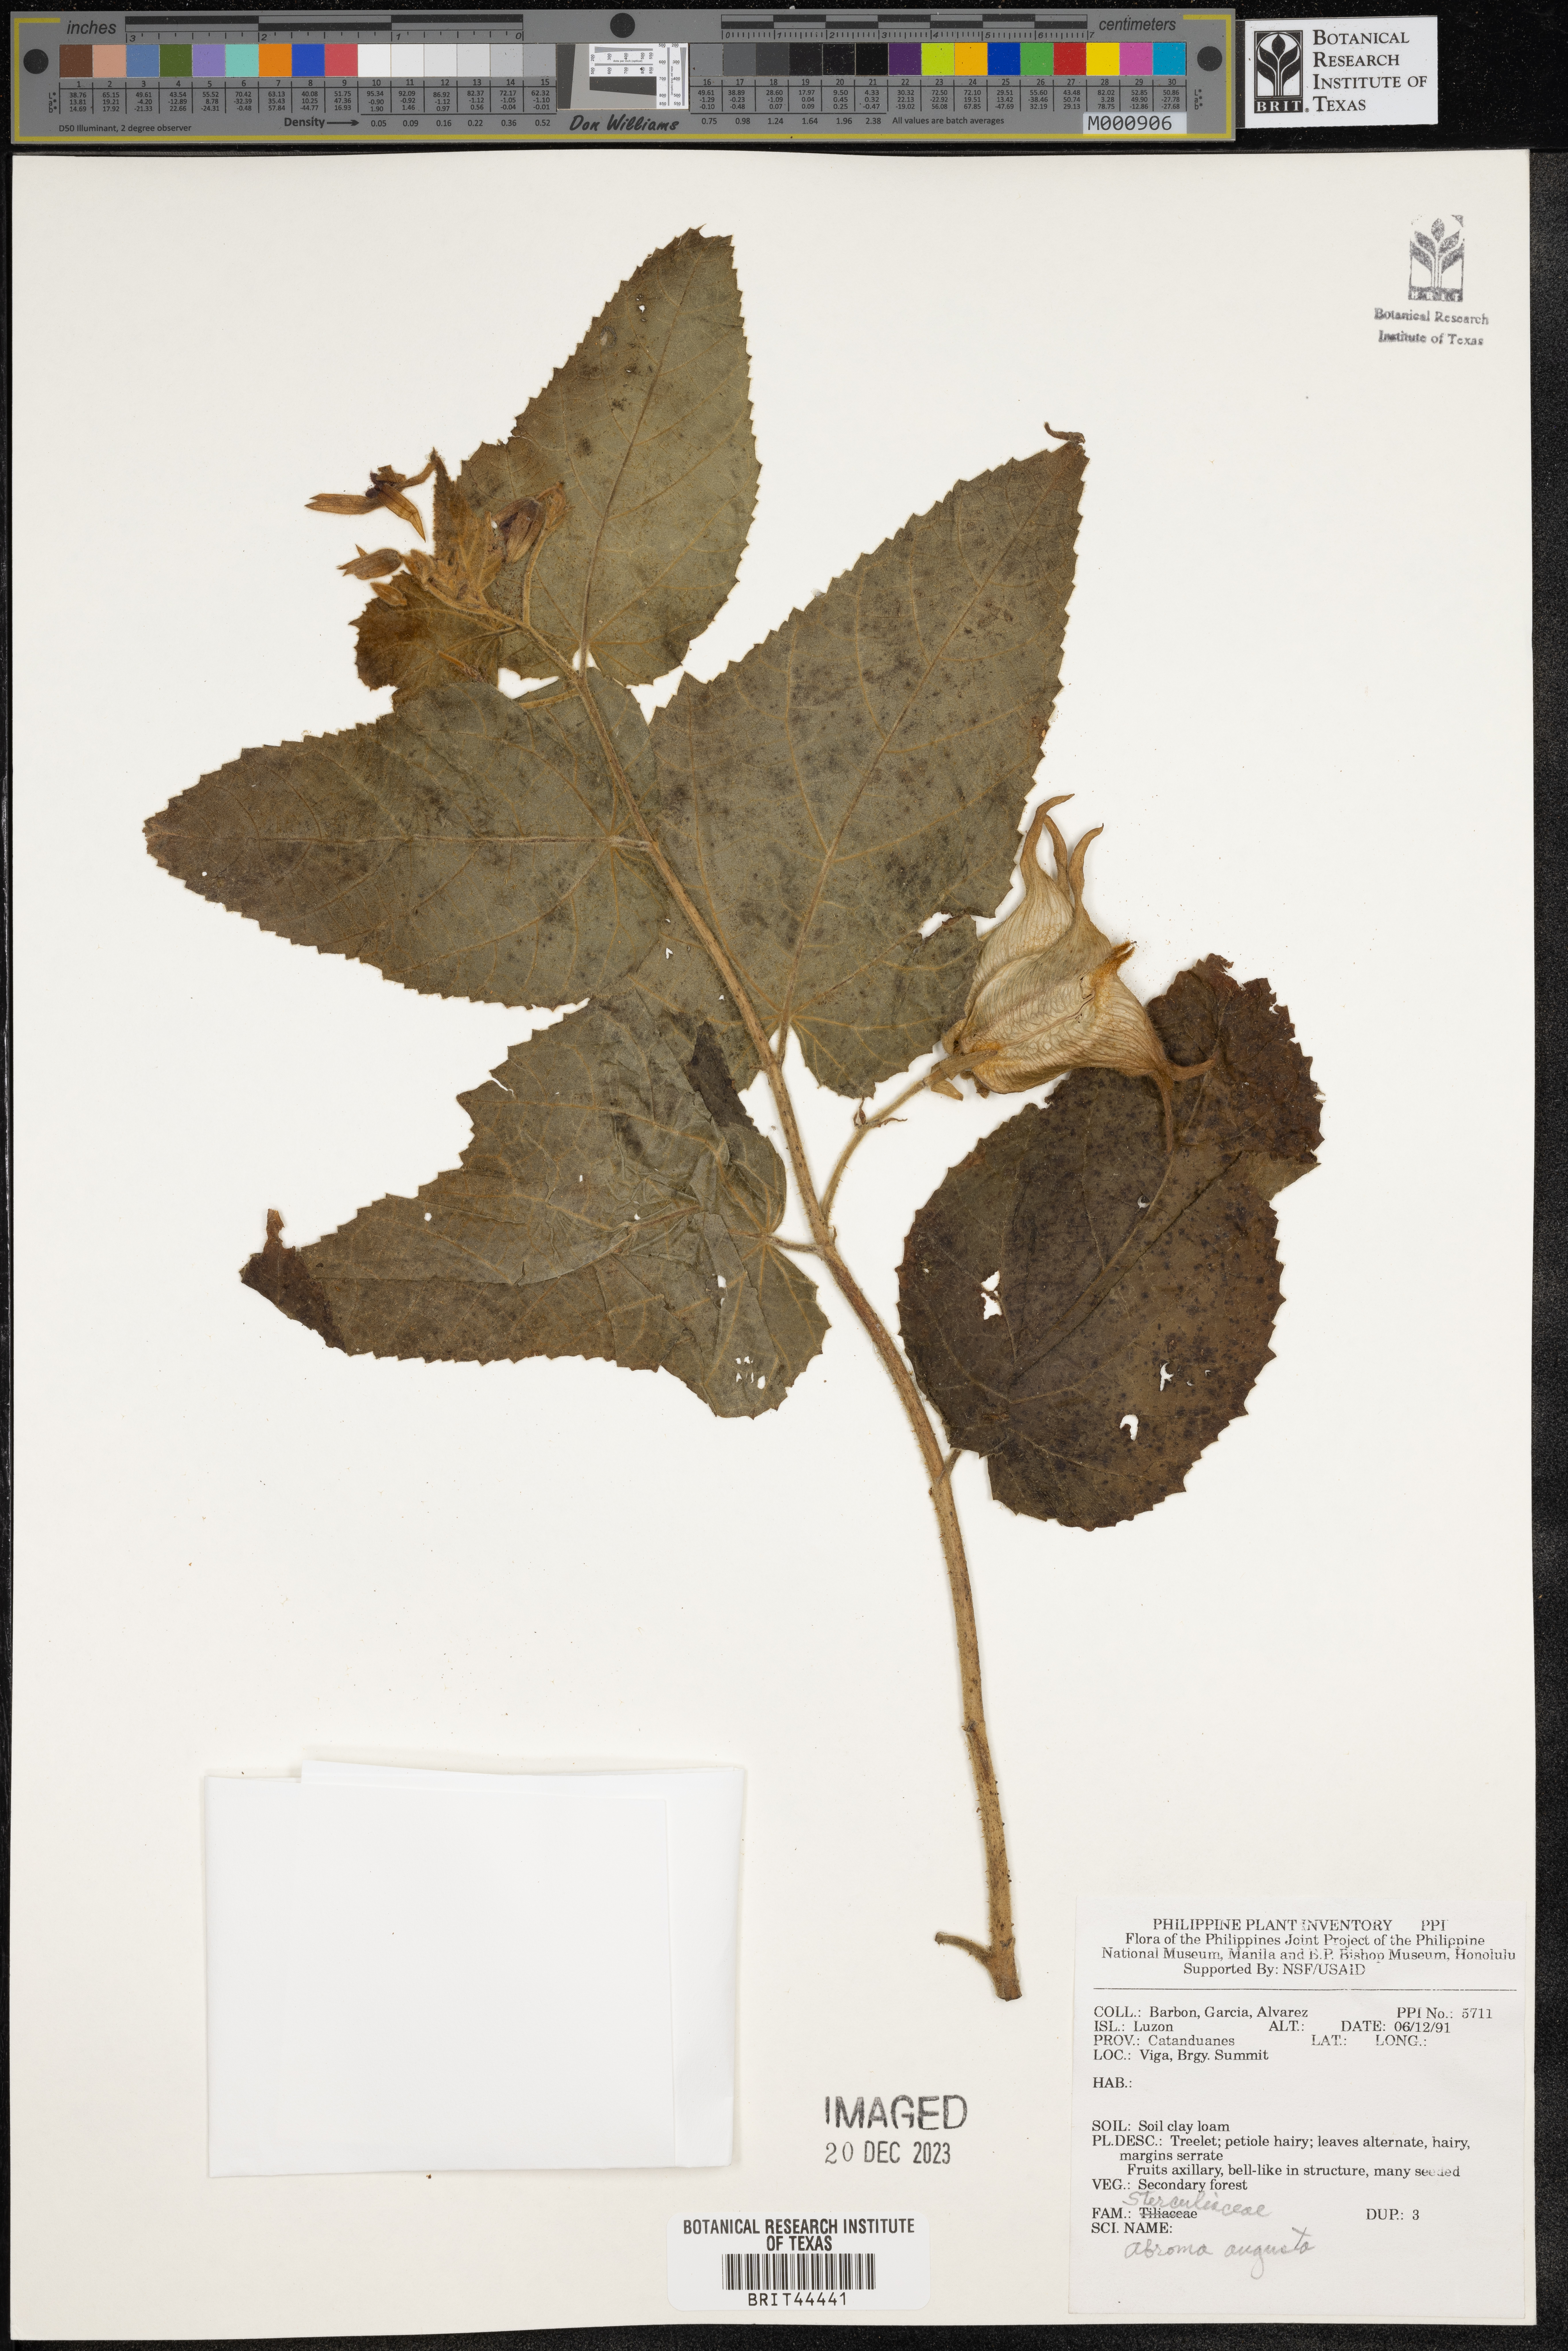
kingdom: Plantae
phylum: Tracheophyta
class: Magnoliopsida
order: Malvales
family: Malvaceae
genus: Abroma
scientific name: Abroma augustum
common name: Devil's-cotton
